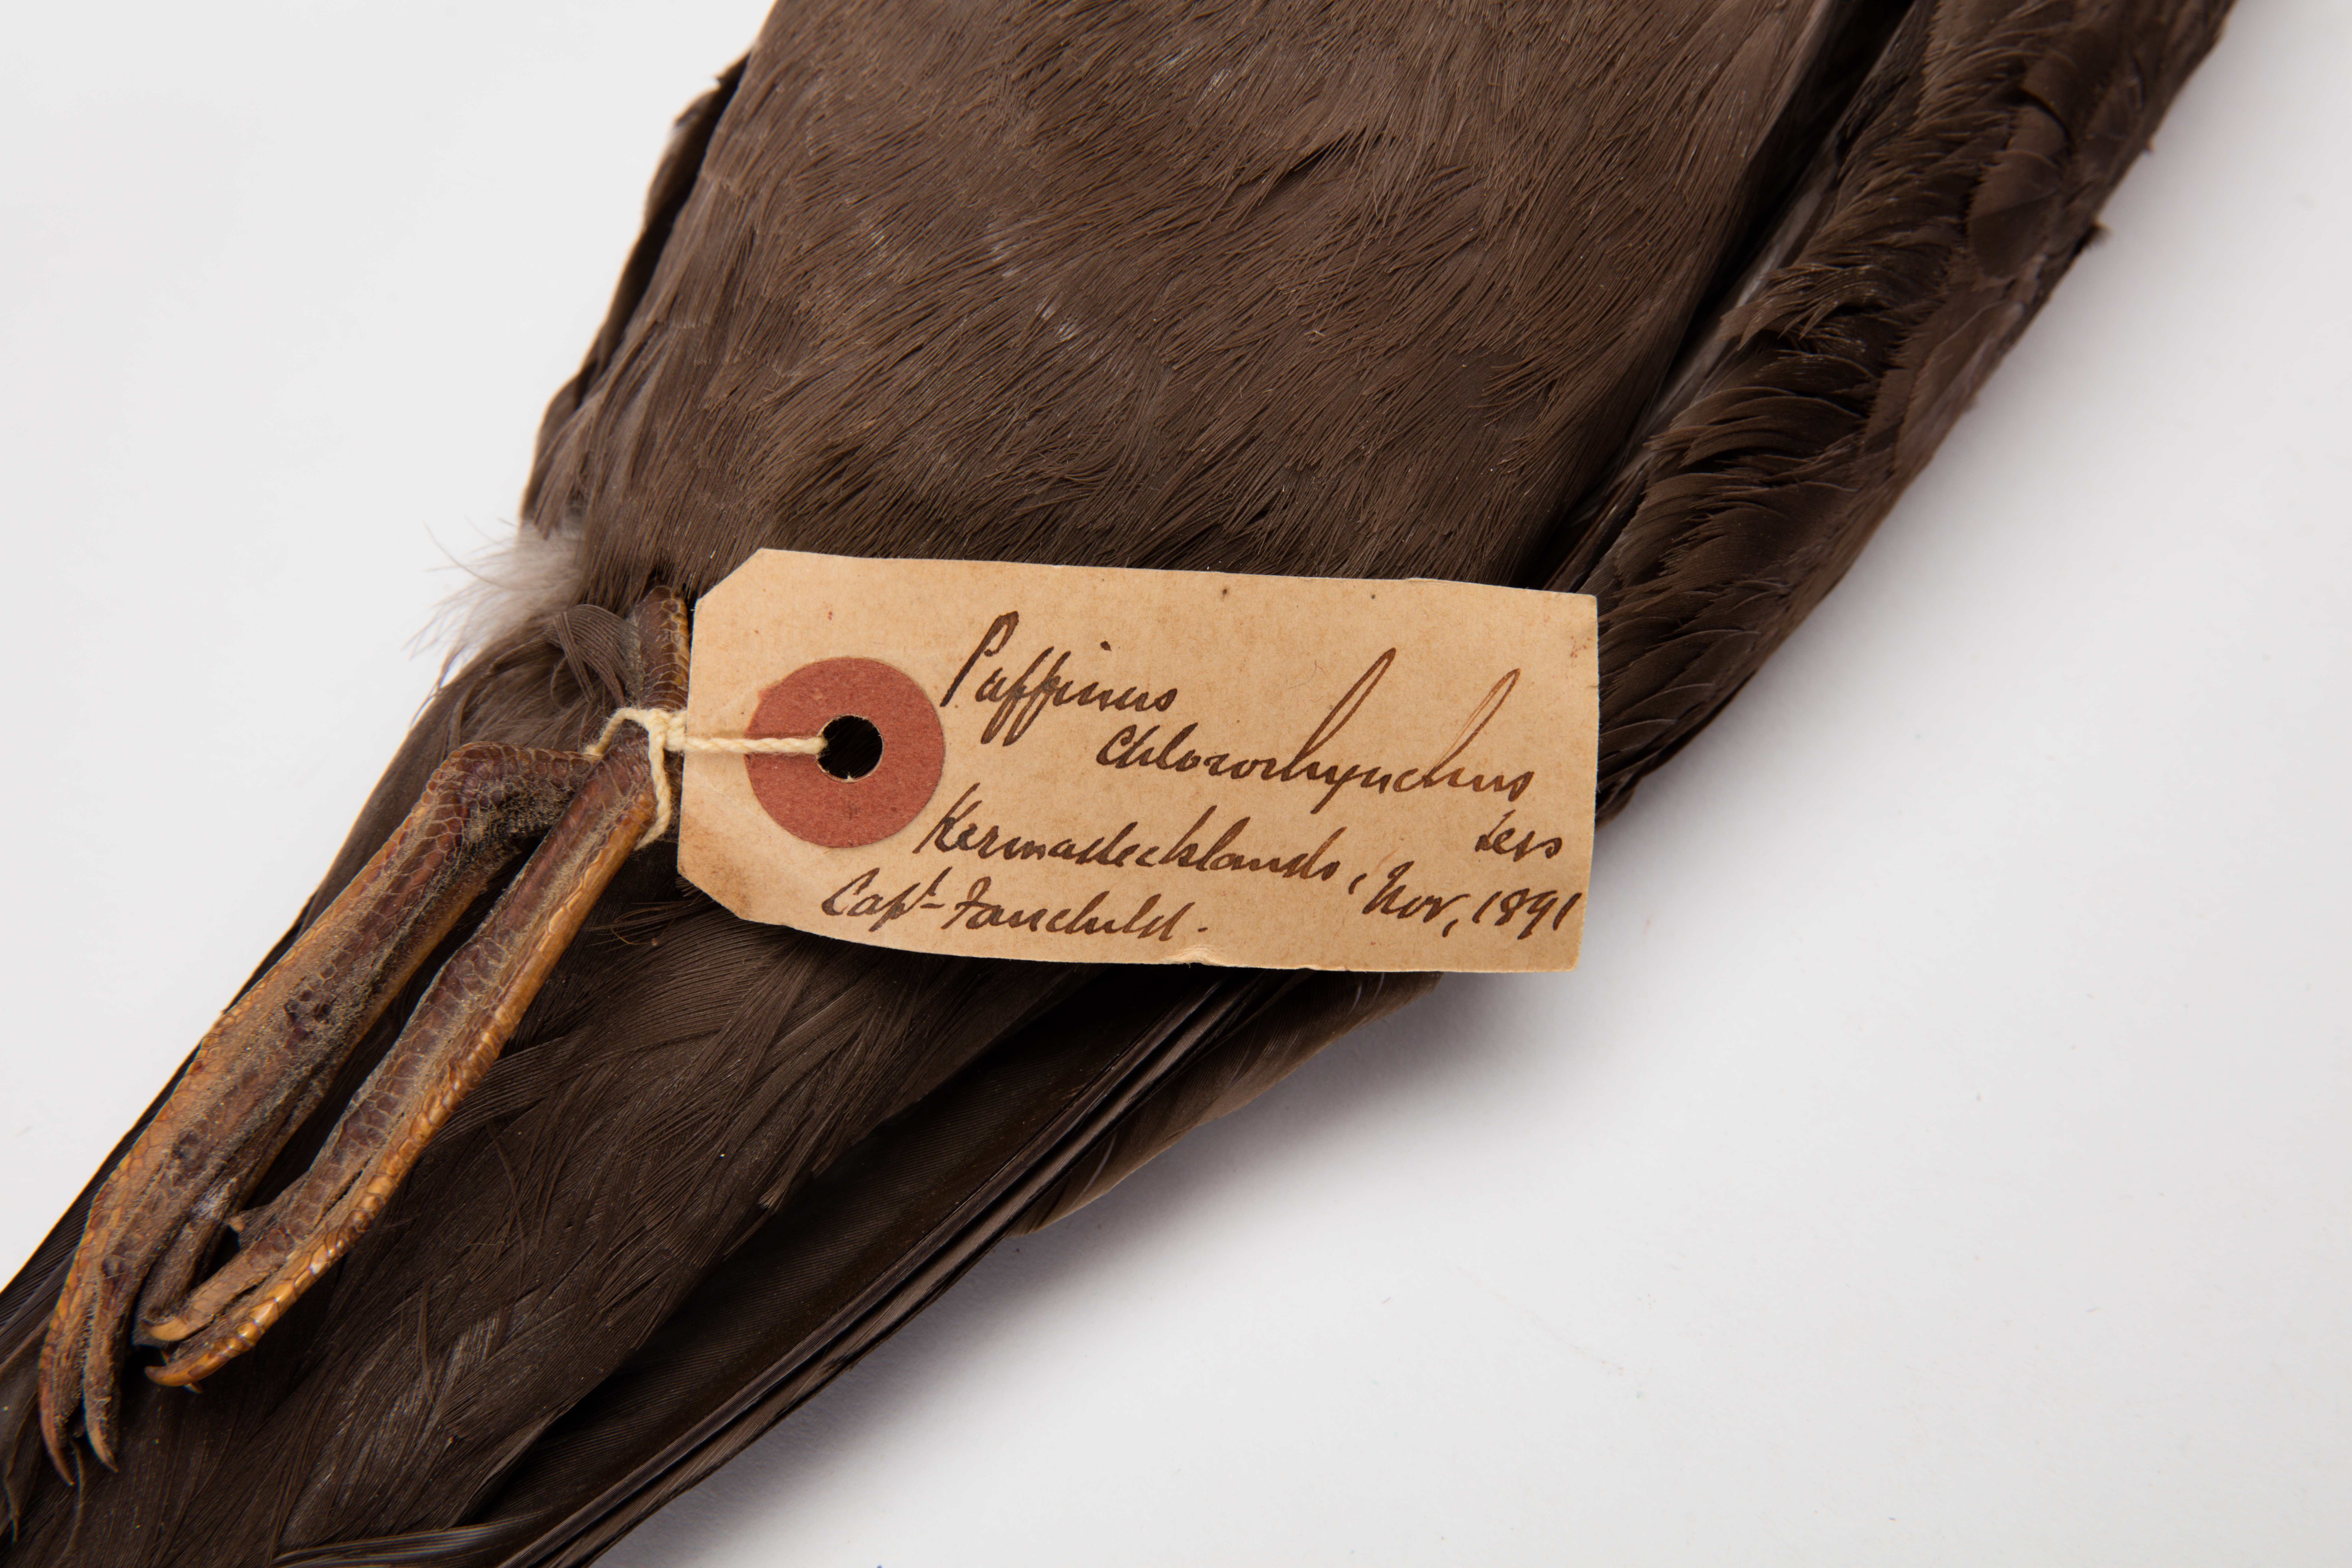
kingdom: Animalia
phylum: Chordata
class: Aves
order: Procellariiformes
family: Procellariidae
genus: Puffinus
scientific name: Puffinus pacificus
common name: Wedge-tailed shearwater
